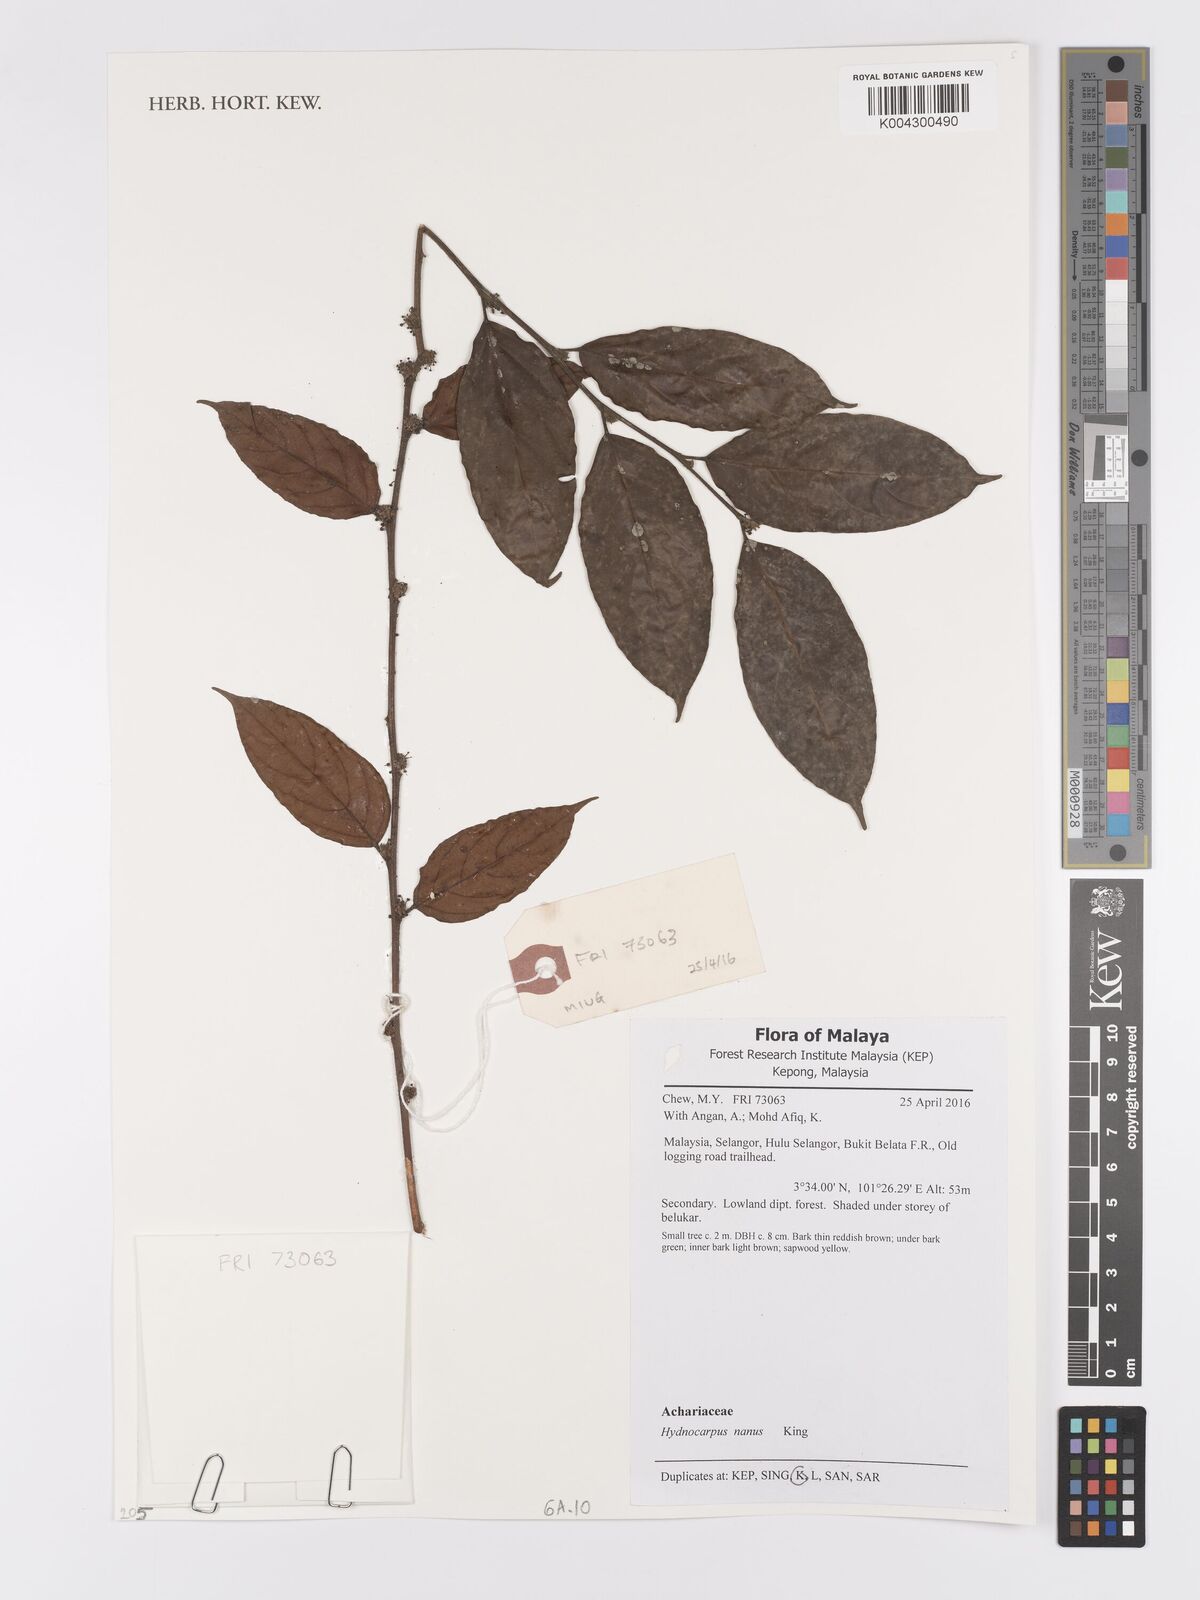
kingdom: Plantae
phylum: Tracheophyta
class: Magnoliopsida
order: Malpighiales
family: Achariaceae
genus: Hydnocarpus
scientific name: Hydnocarpus nanus
